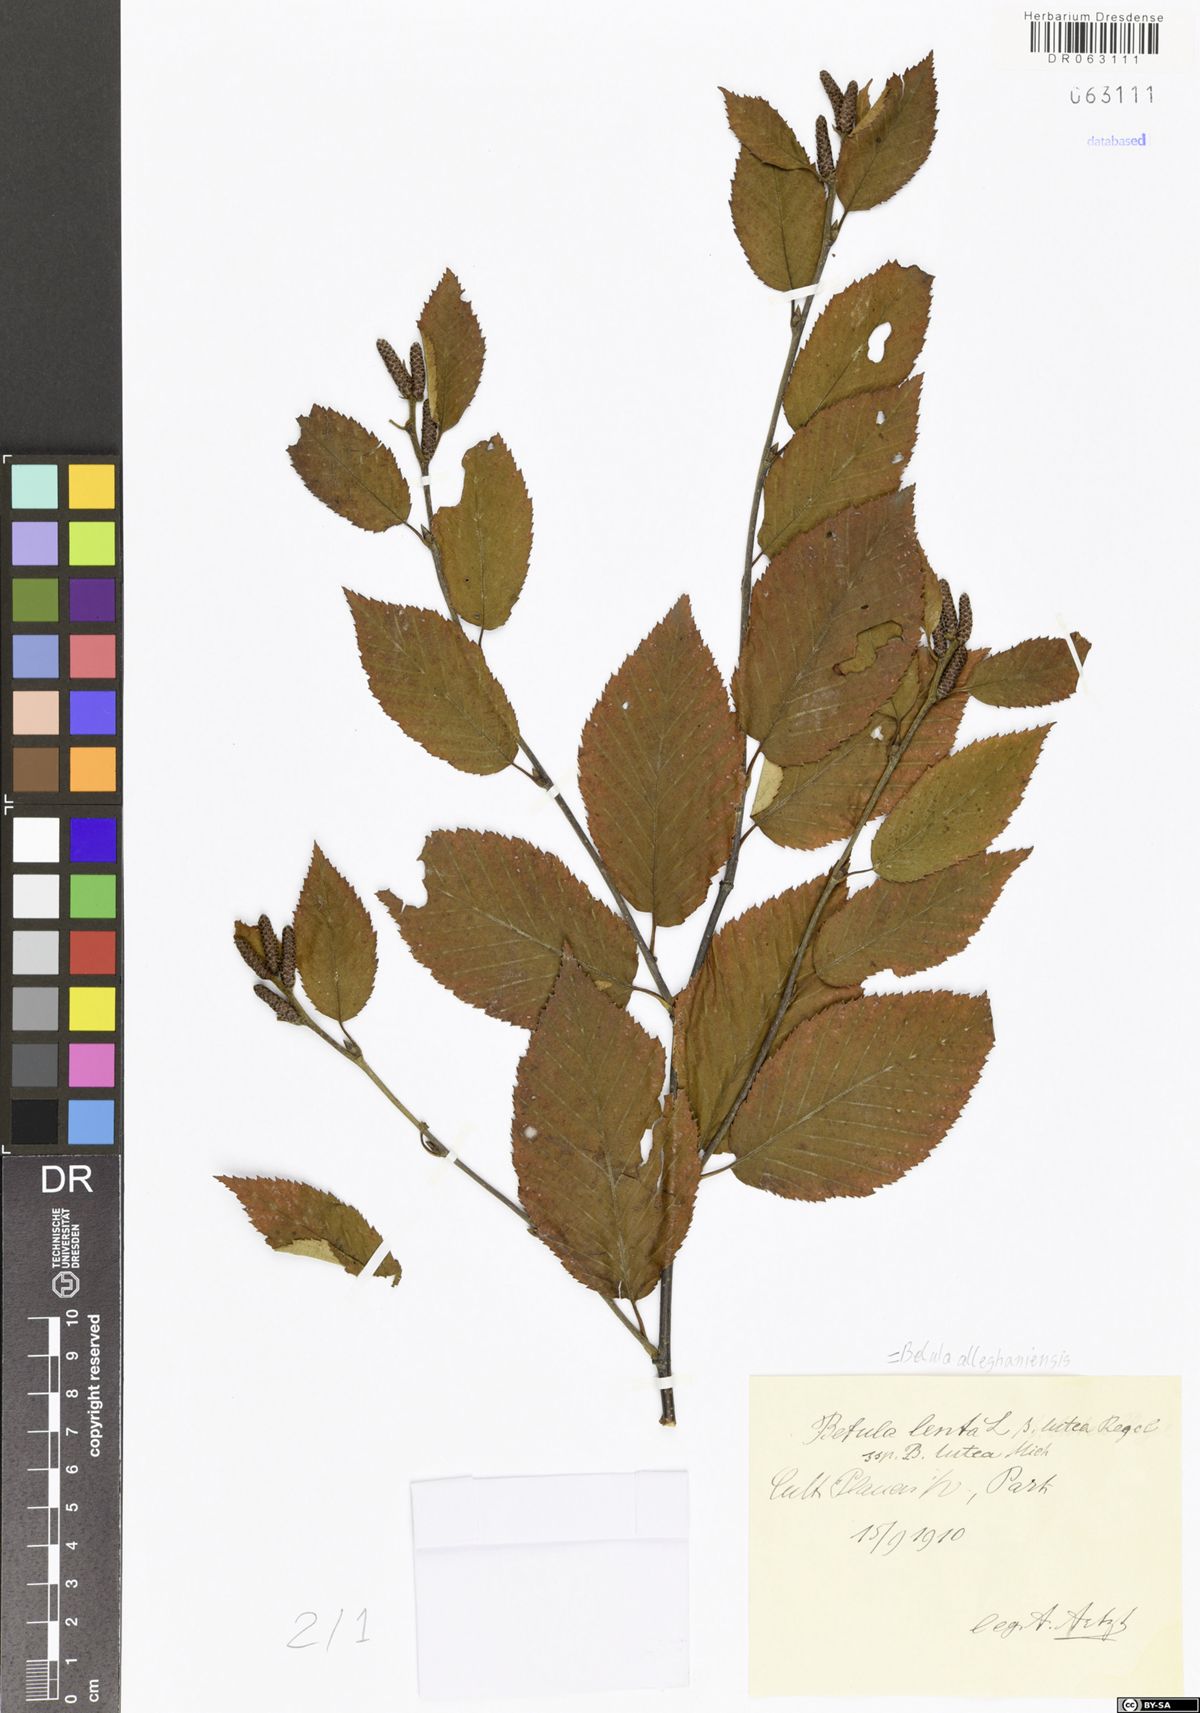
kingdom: Plantae
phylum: Tracheophyta
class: Magnoliopsida
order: Fagales
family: Betulaceae
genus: Betula
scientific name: Betula alleghaniensis
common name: Yellow birch
